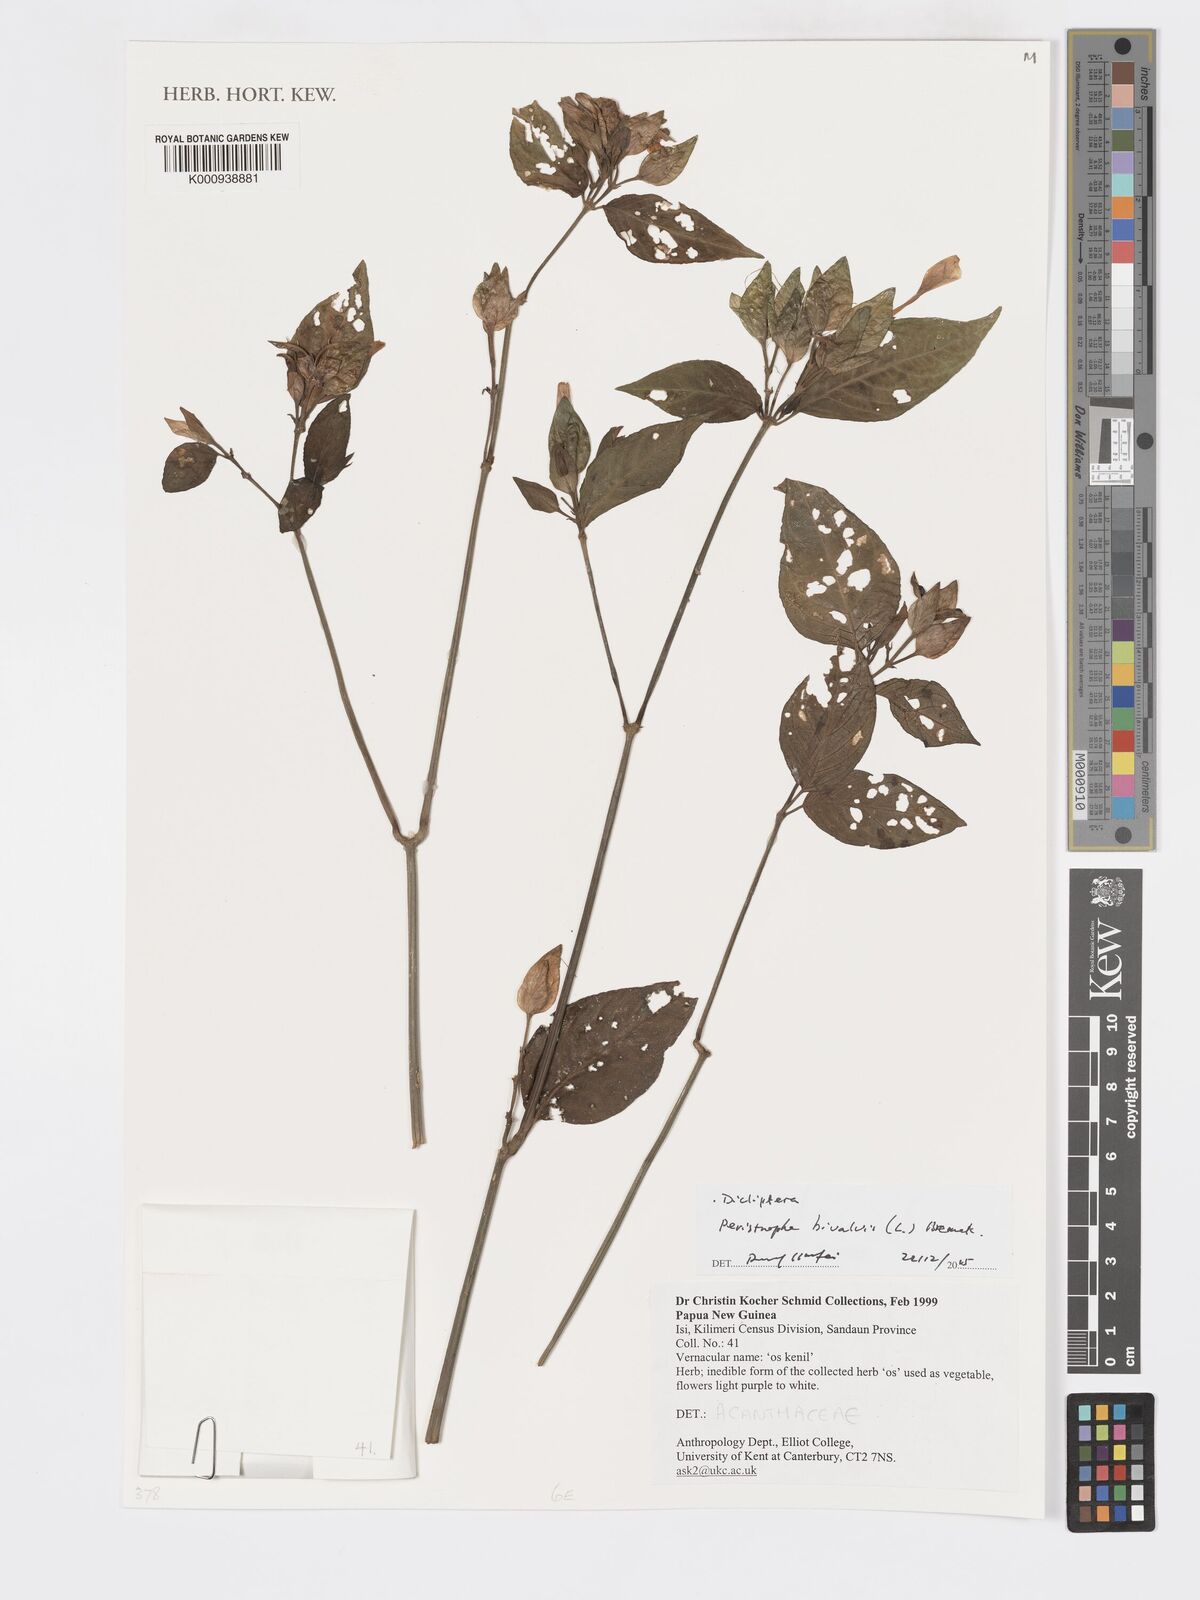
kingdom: Plantae
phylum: Tracheophyta
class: Magnoliopsida
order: Lamiales
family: Acanthaceae
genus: Dicliptera
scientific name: Dicliptera tinctoria
